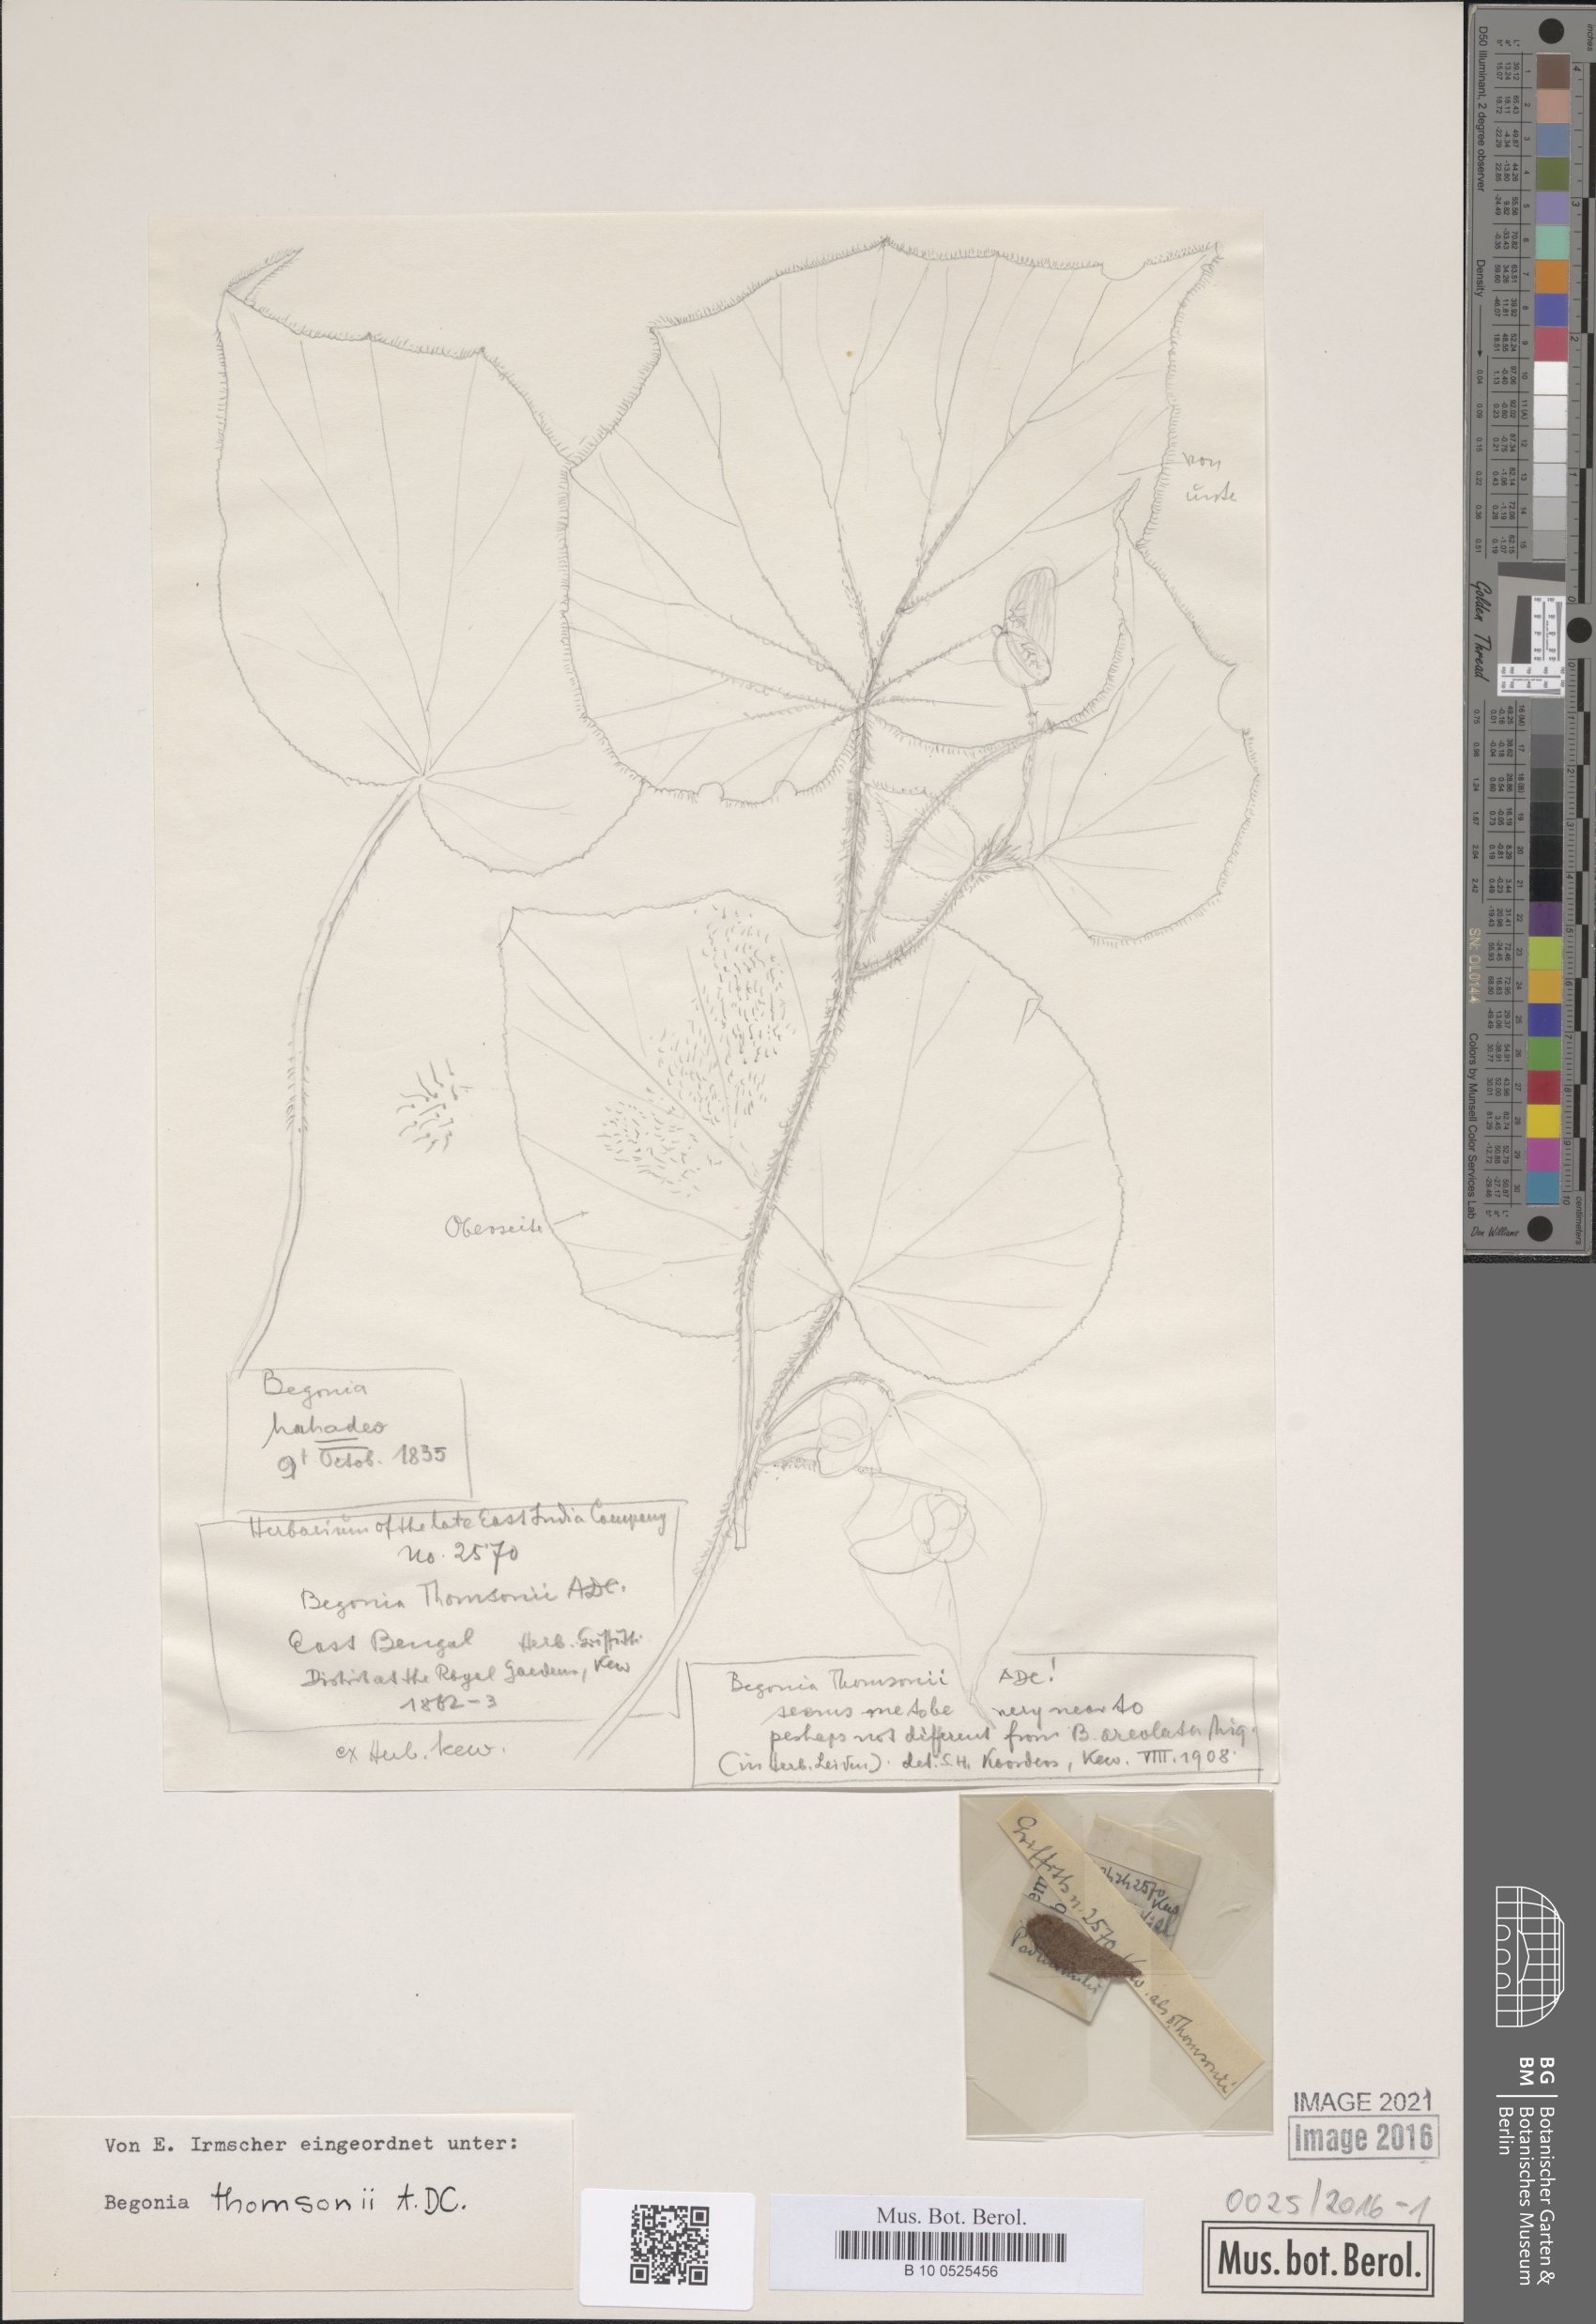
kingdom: Plantae
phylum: Tracheophyta
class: Magnoliopsida
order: Cucurbitales
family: Begoniaceae
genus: Begonia
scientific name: Begonia thomsonii
